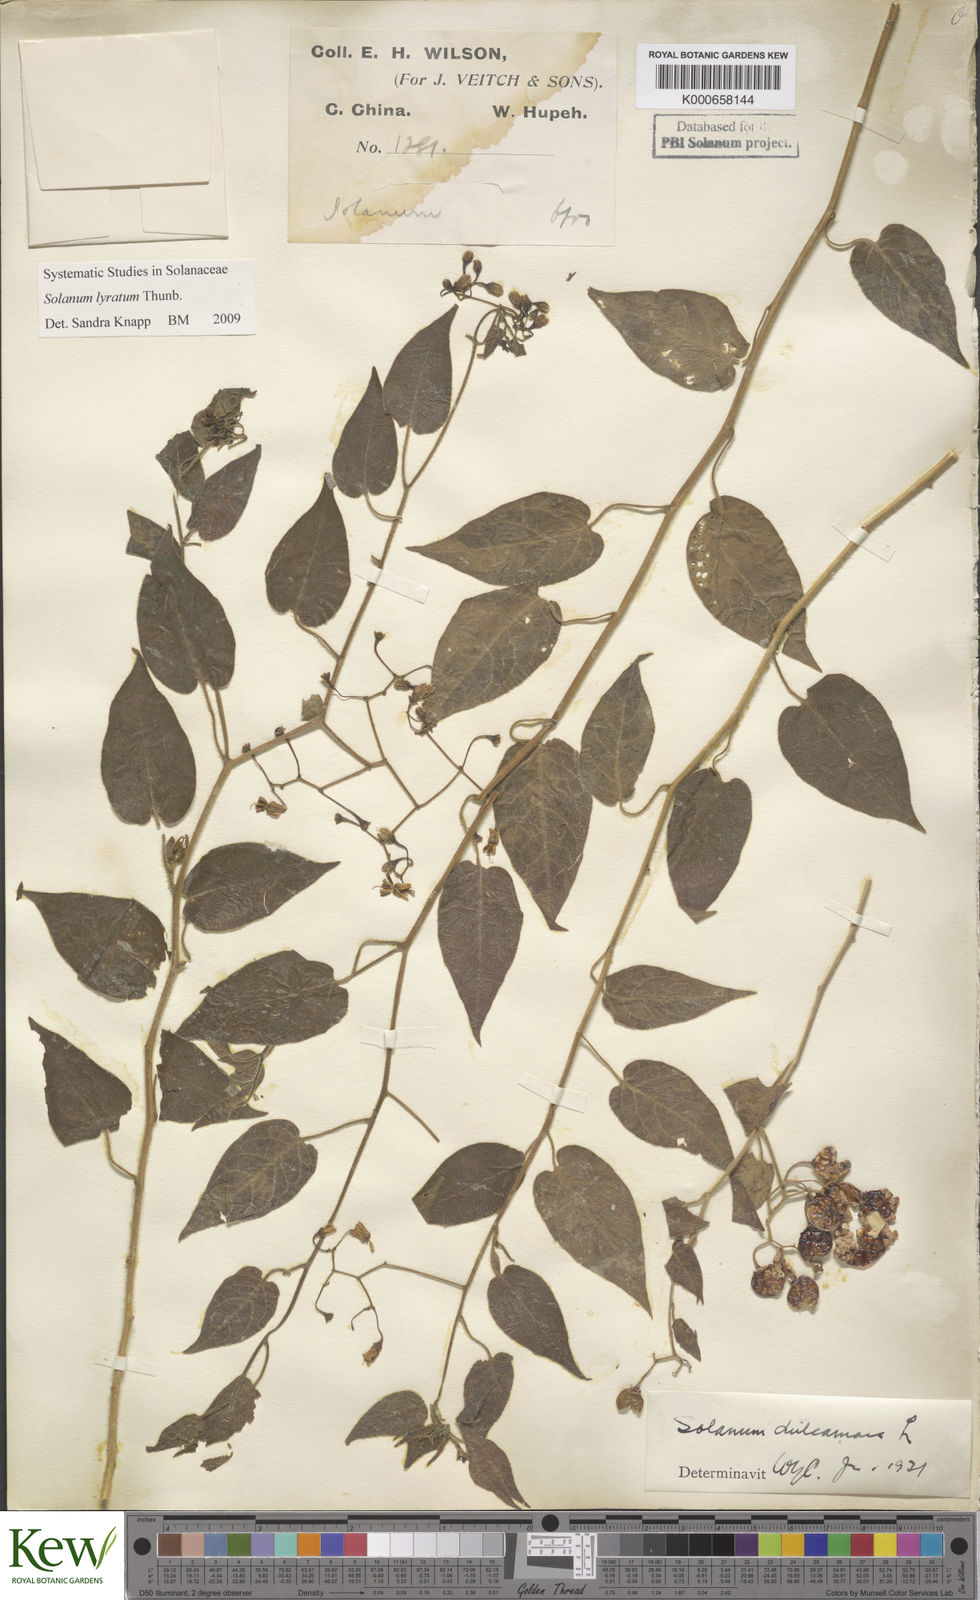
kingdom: Plantae
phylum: Tracheophyta
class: Magnoliopsida
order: Solanales
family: Solanaceae
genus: Solanum
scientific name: Solanum lyratum
